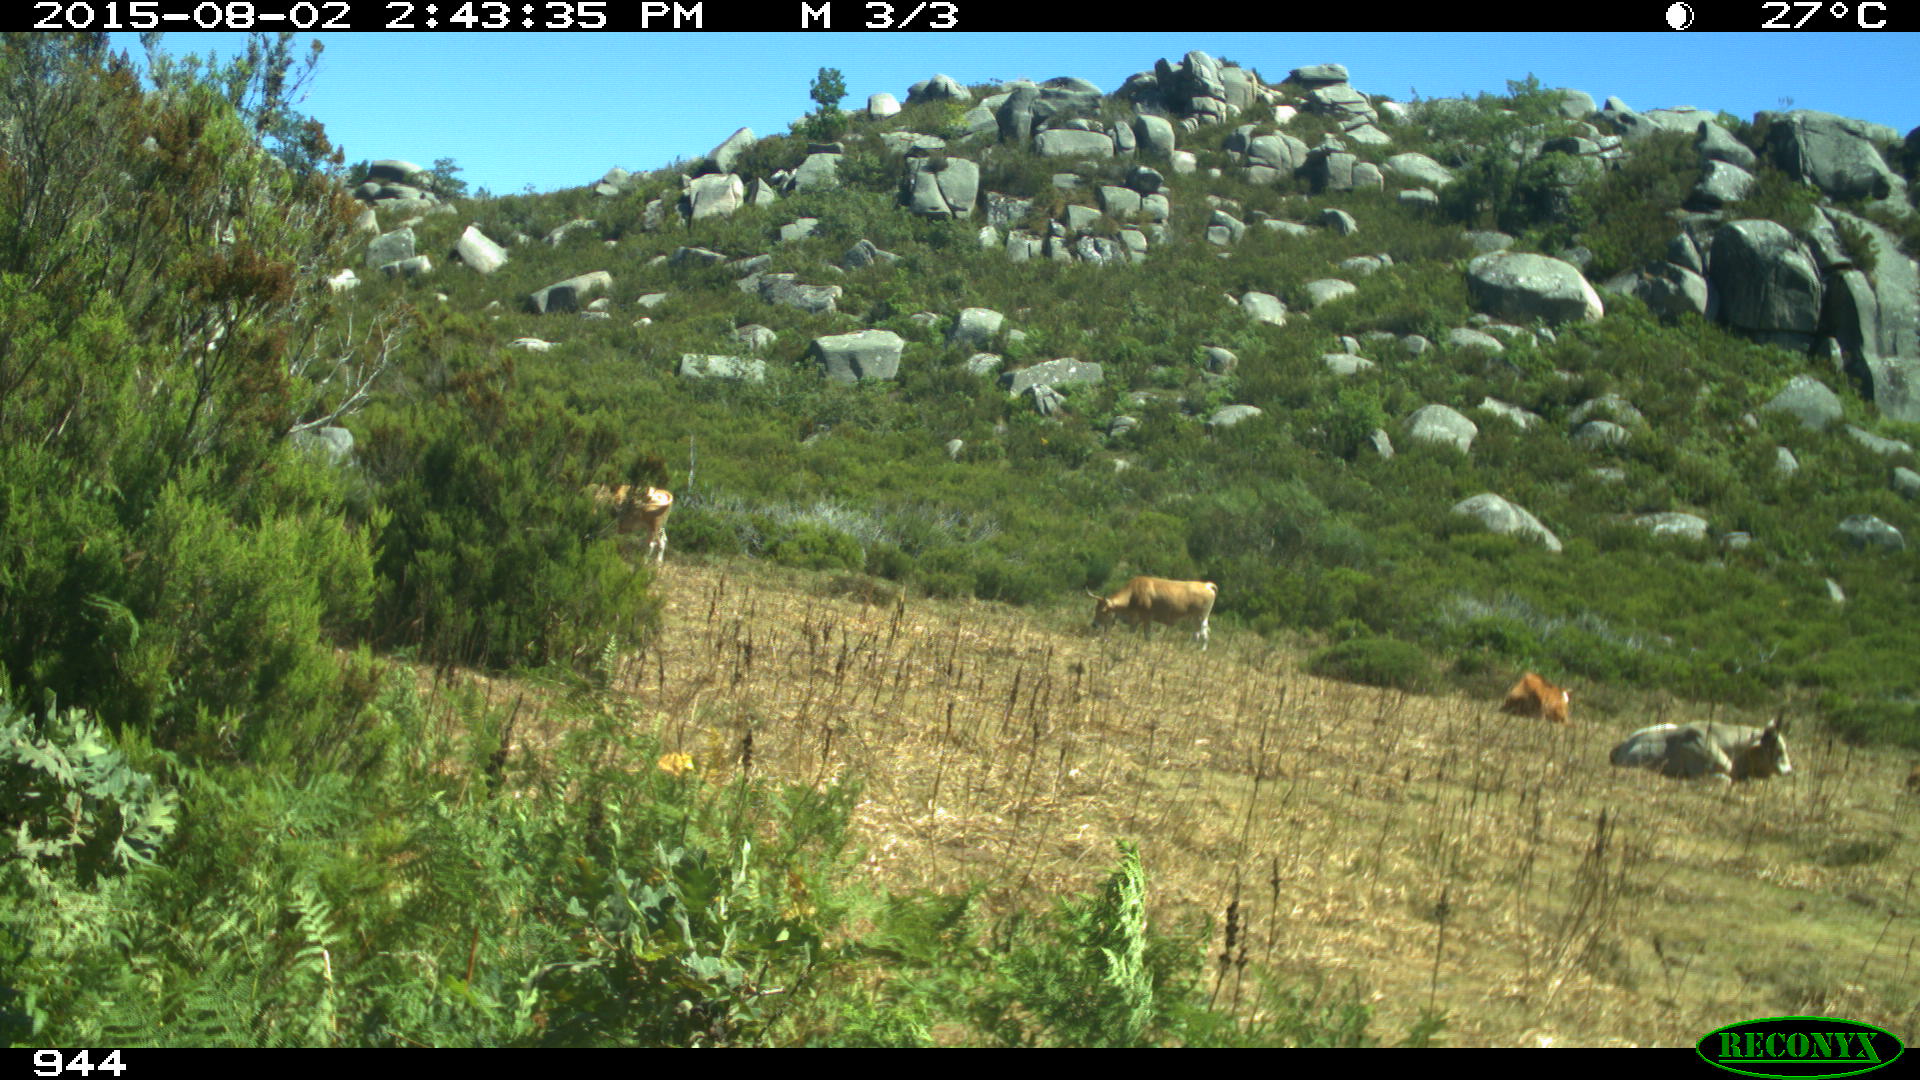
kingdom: Animalia
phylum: Chordata
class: Mammalia
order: Artiodactyla
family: Bovidae
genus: Bos
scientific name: Bos taurus
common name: Domesticated cattle
